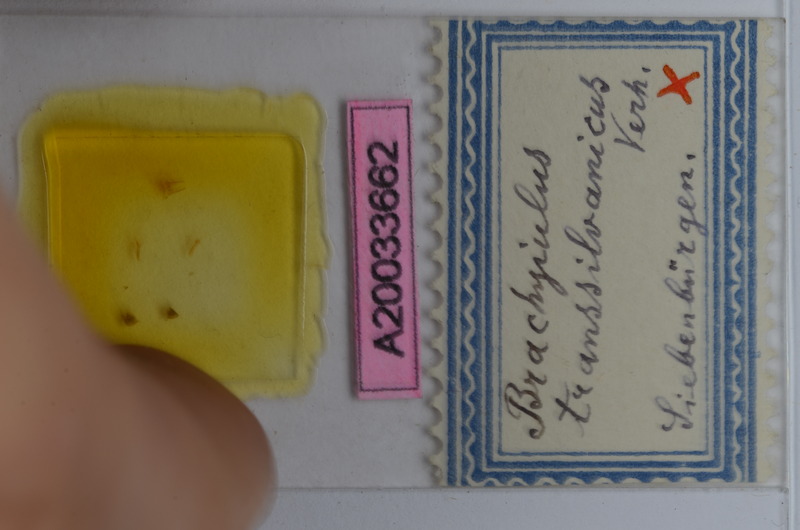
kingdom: Animalia
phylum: Arthropoda
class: Diplopoda
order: Julida
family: Julidae
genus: Megaphyllum
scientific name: Megaphyllum transsylvanicum
